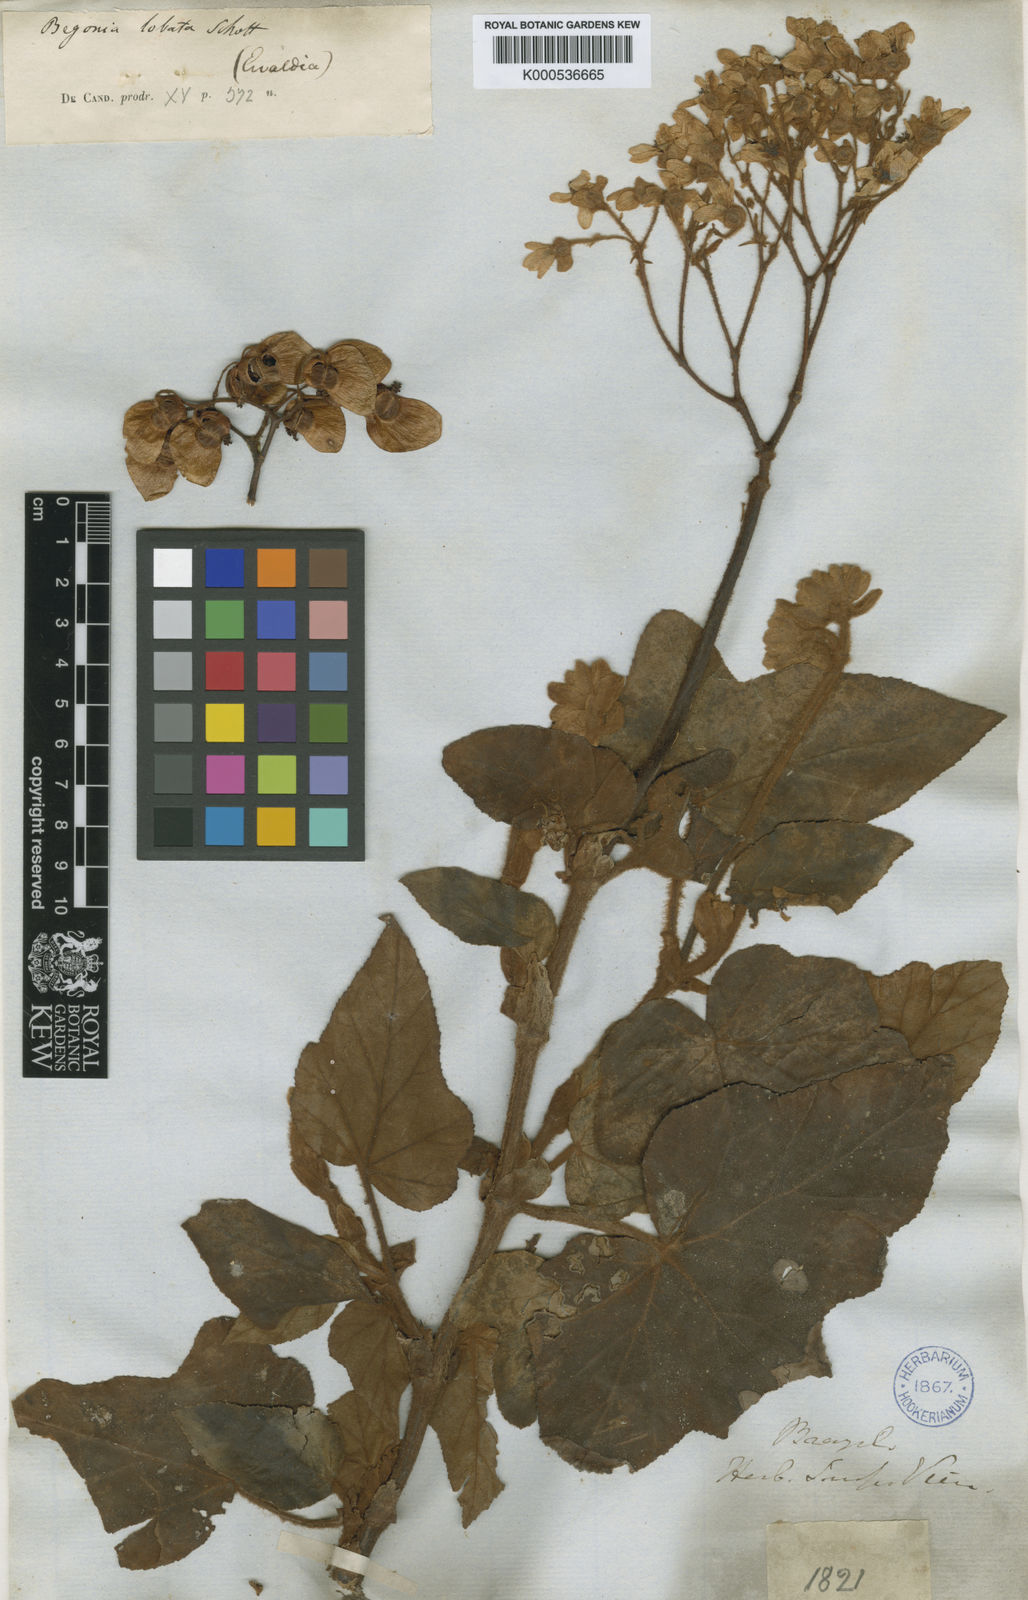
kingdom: Plantae
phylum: Tracheophyta
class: Magnoliopsida
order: Cucurbitales
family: Begoniaceae
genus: Begonia
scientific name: Begonia rufa
